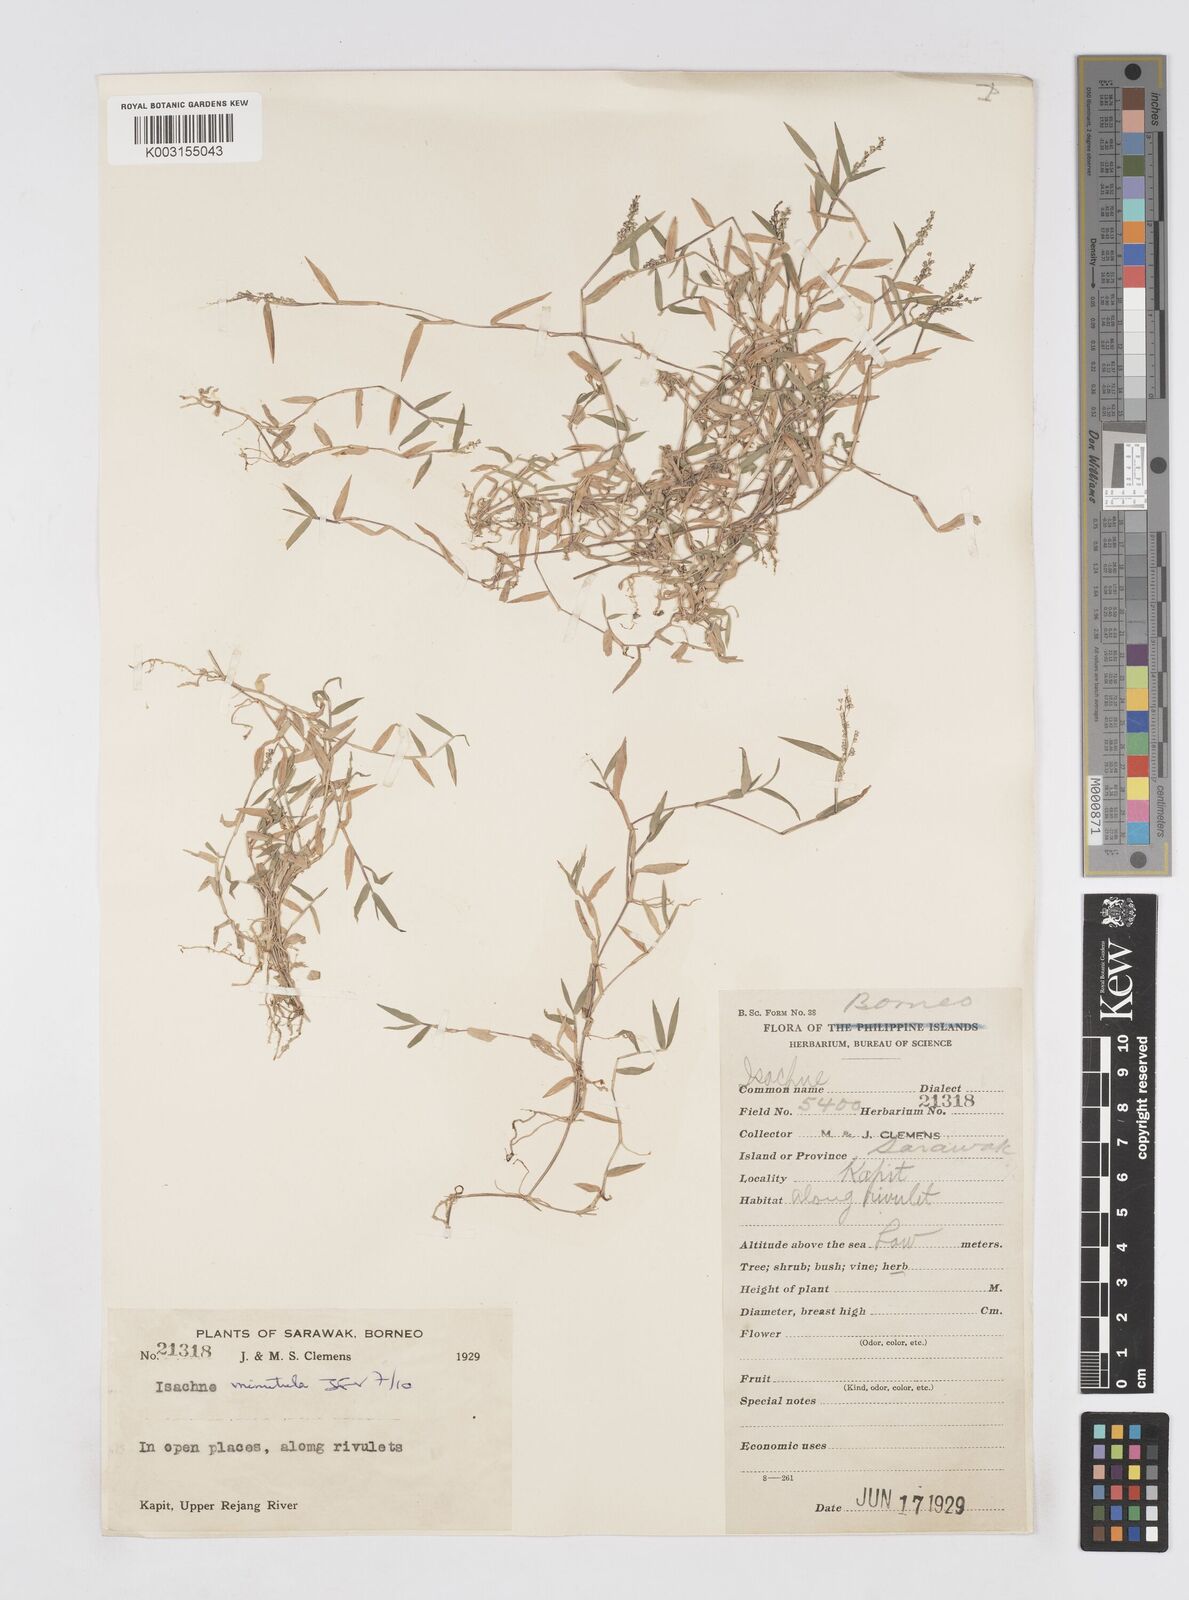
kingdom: Plantae
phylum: Tracheophyta
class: Liliopsida
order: Poales
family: Poaceae
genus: Isachne
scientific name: Isachne minutula
